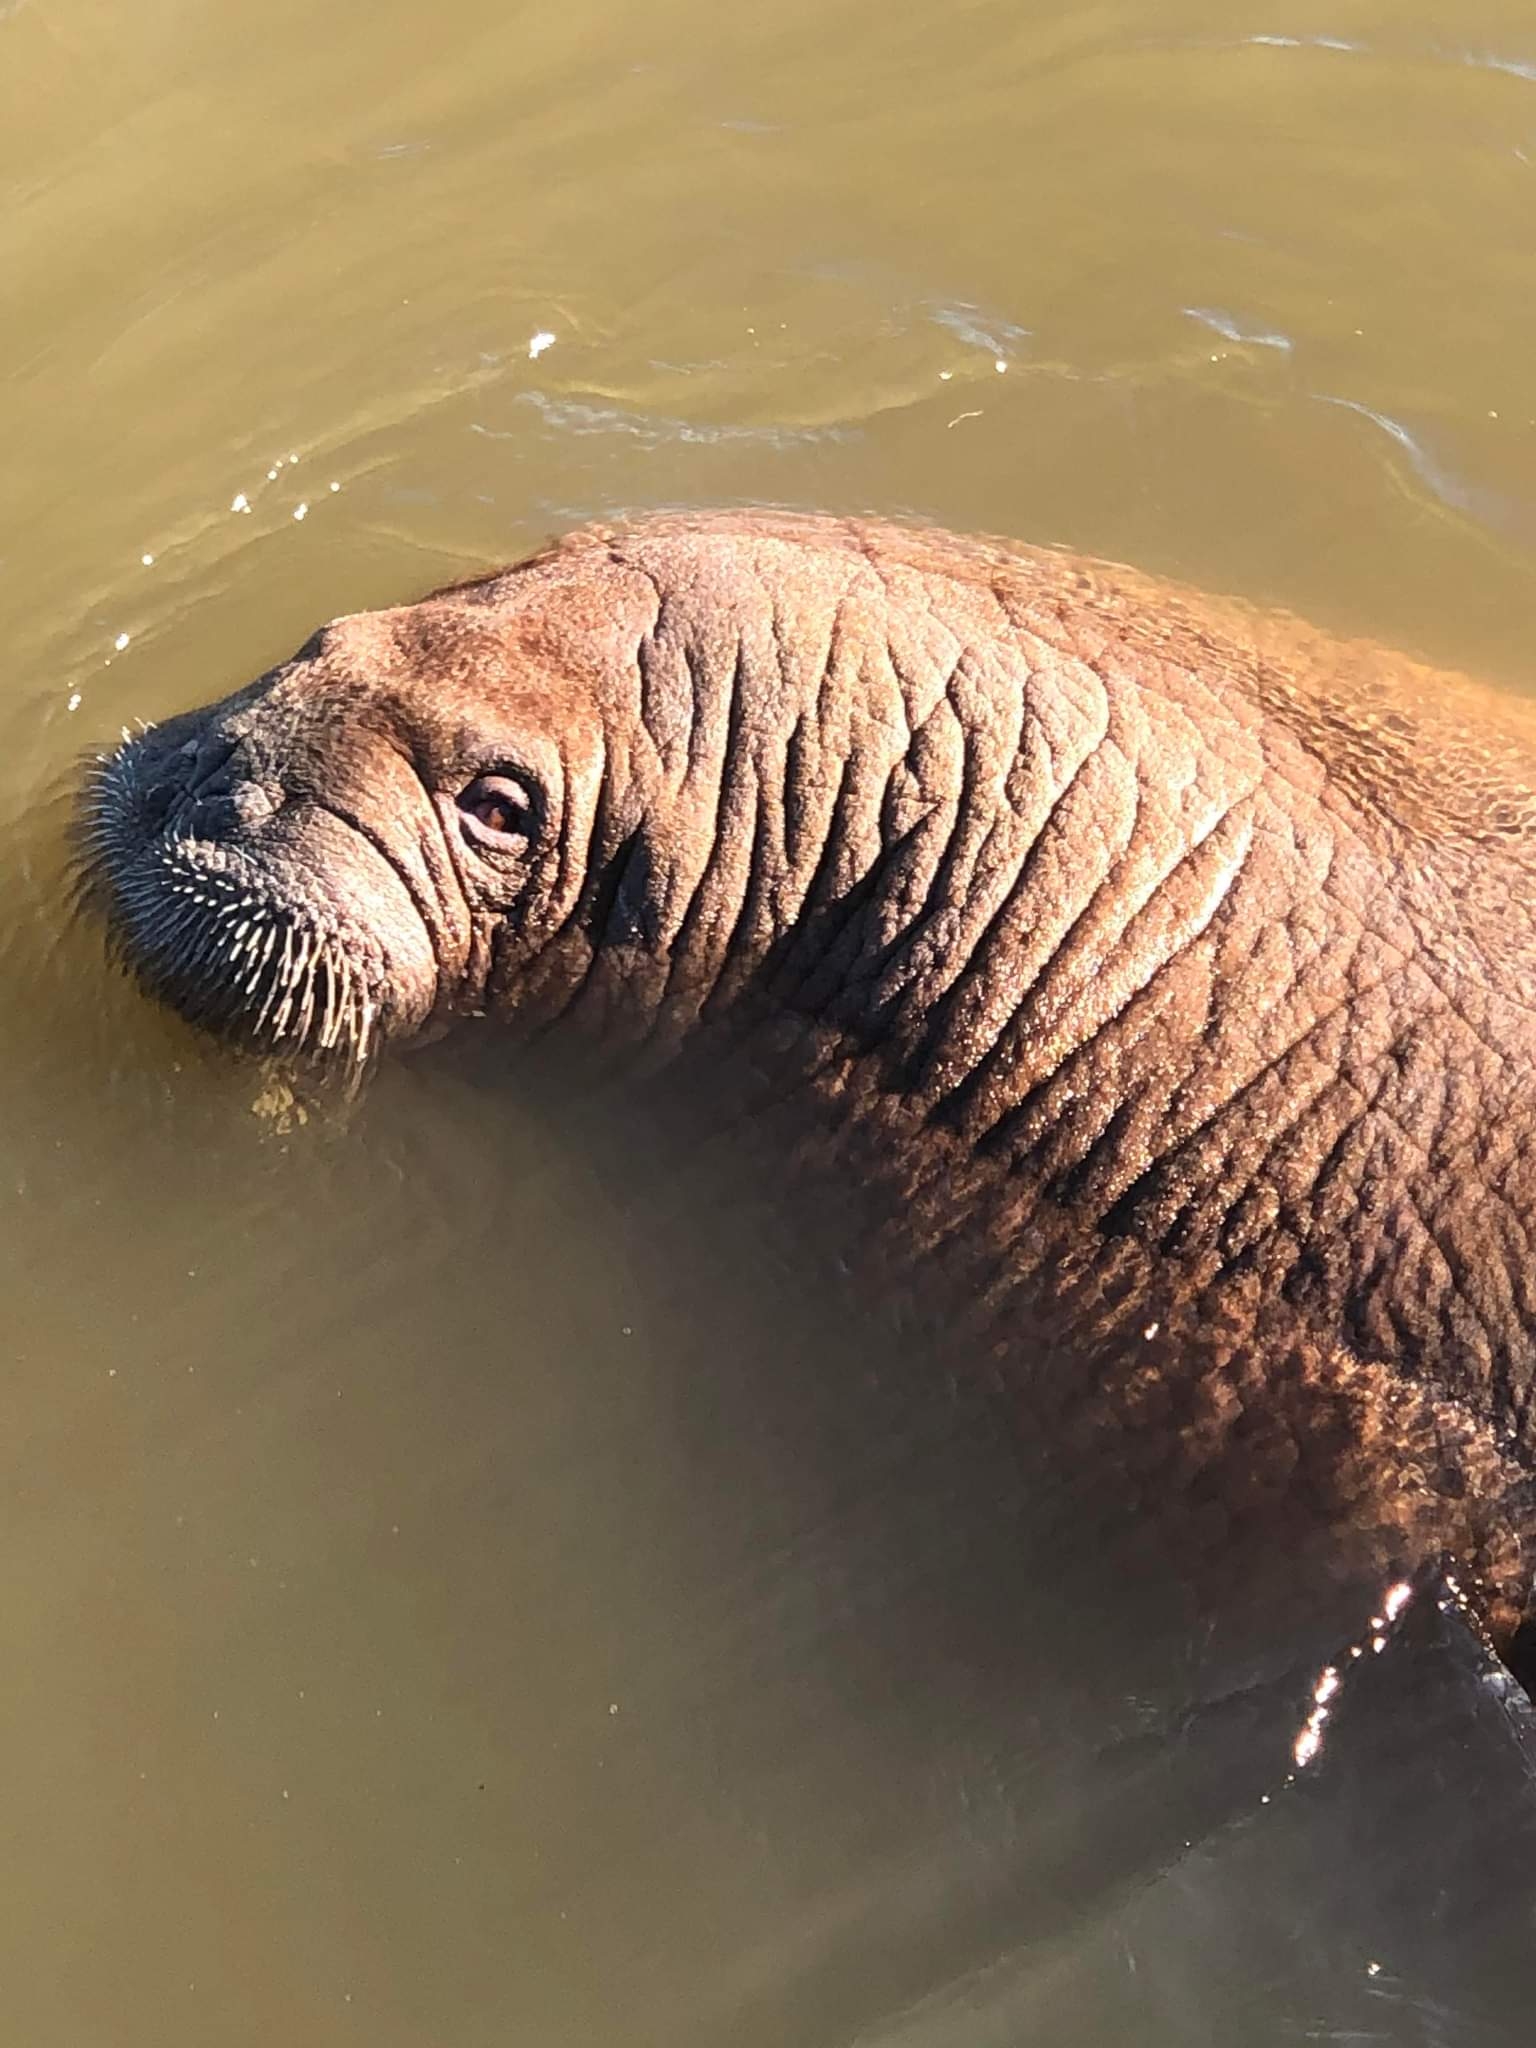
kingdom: Animalia
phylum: Chordata
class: Mammalia
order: Carnivora
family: Odobenidae
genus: Odobenus
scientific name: Odobenus rosmarus
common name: Hvalros
